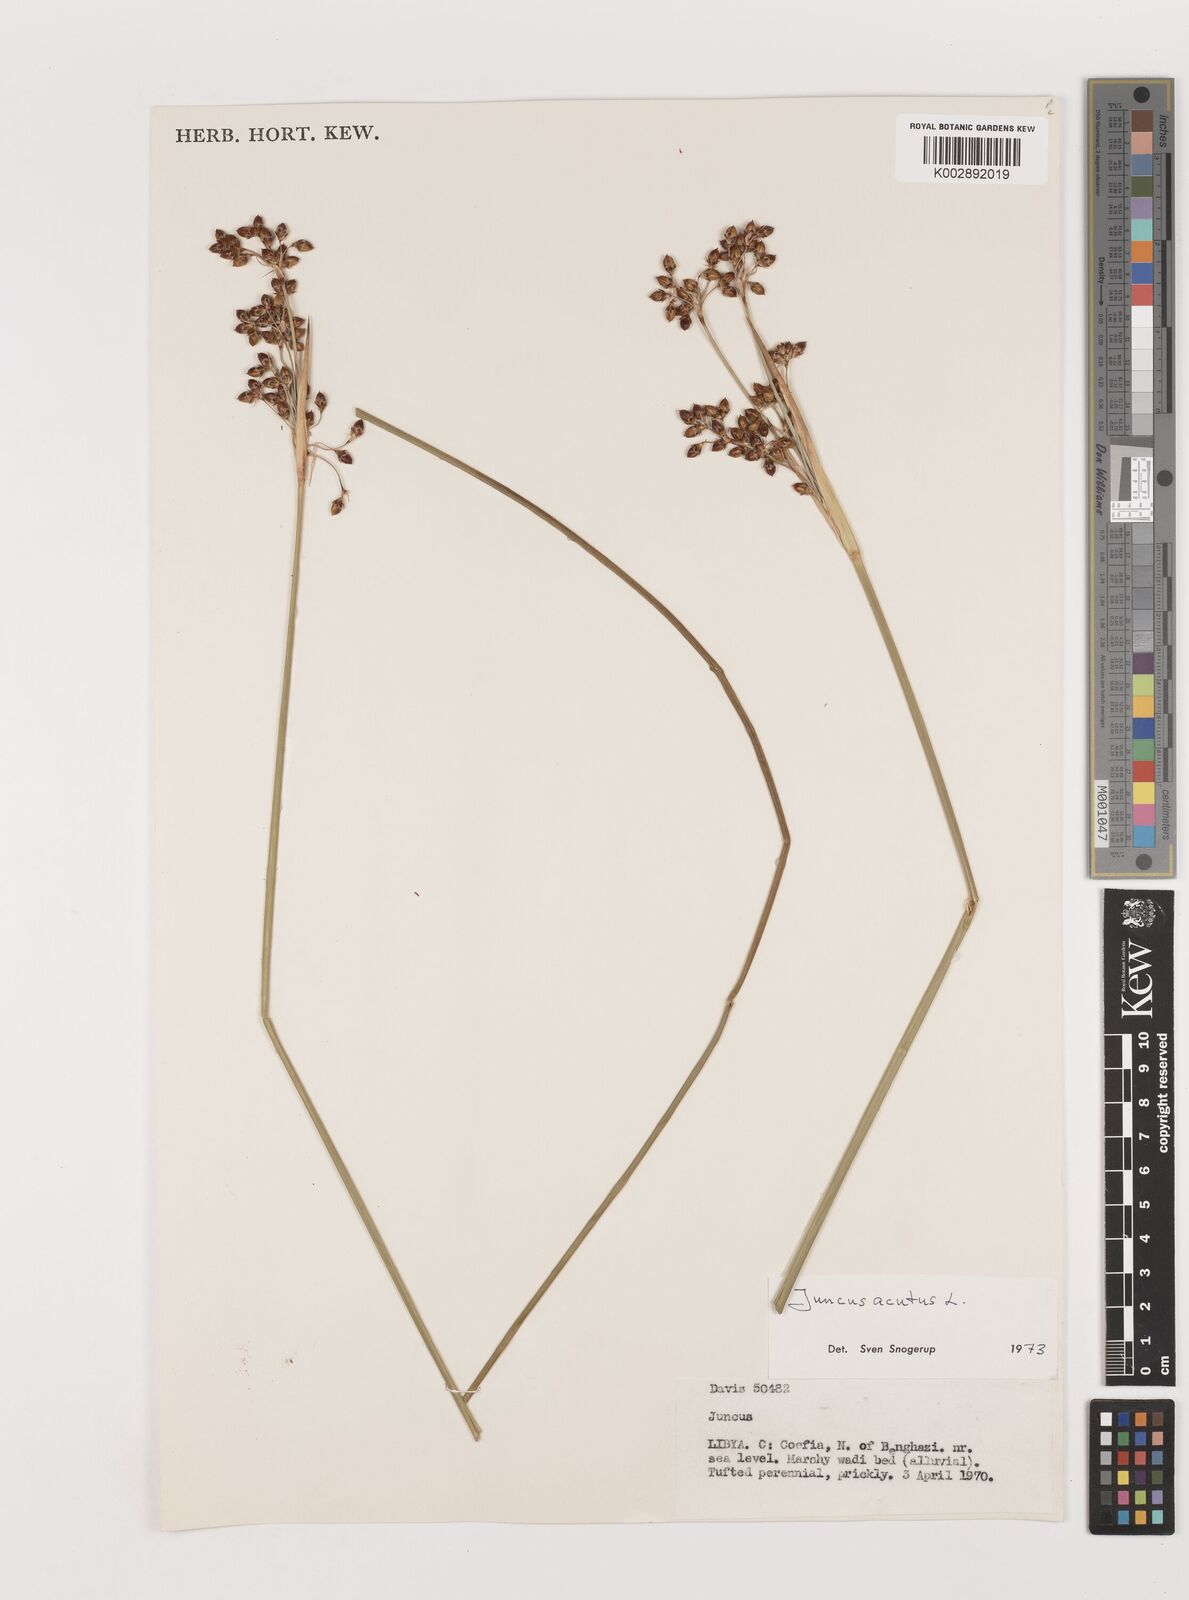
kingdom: Plantae
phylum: Tracheophyta
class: Liliopsida
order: Poales
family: Juncaceae
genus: Juncus
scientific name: Juncus acutus
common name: Sharp rush
